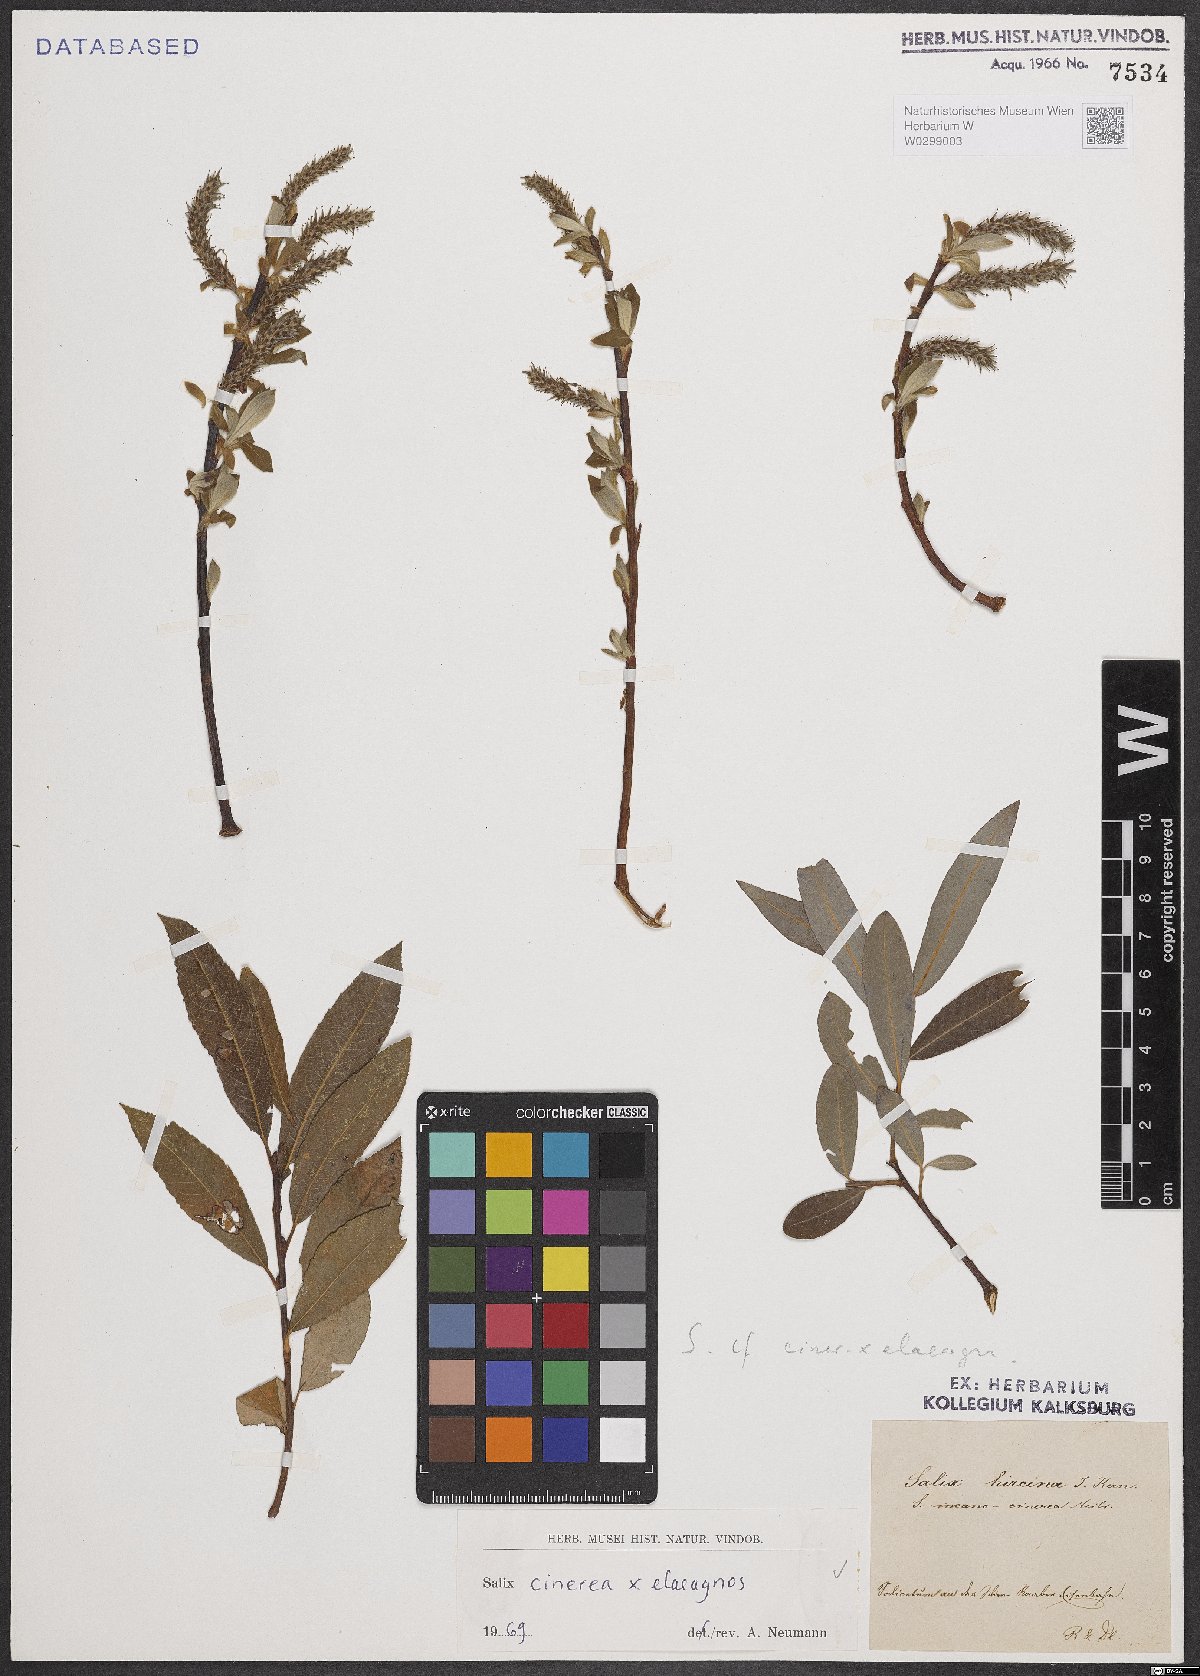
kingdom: Plantae
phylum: Tracheophyta
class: Magnoliopsida
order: Malpighiales
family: Salicaceae
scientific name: Salicaceae
